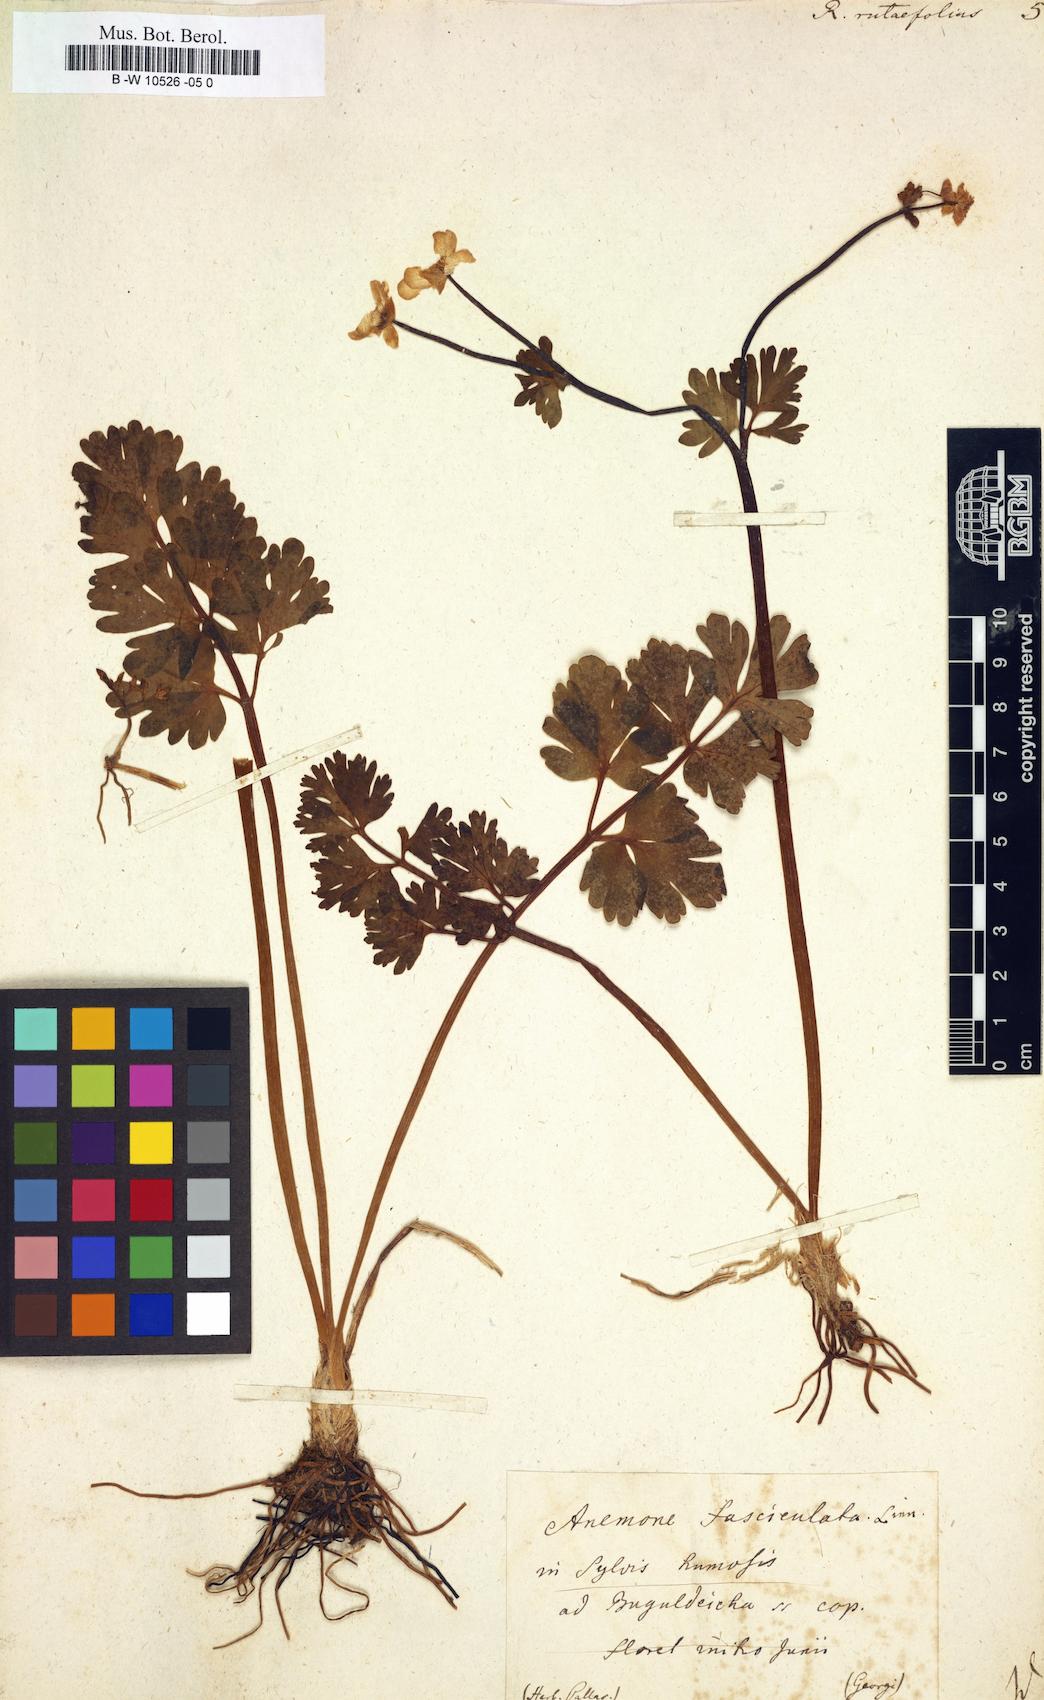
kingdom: Plantae
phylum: Tracheophyta
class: Magnoliopsida
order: Ranunculales
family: Ranunculaceae
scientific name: Ranunculaceae
